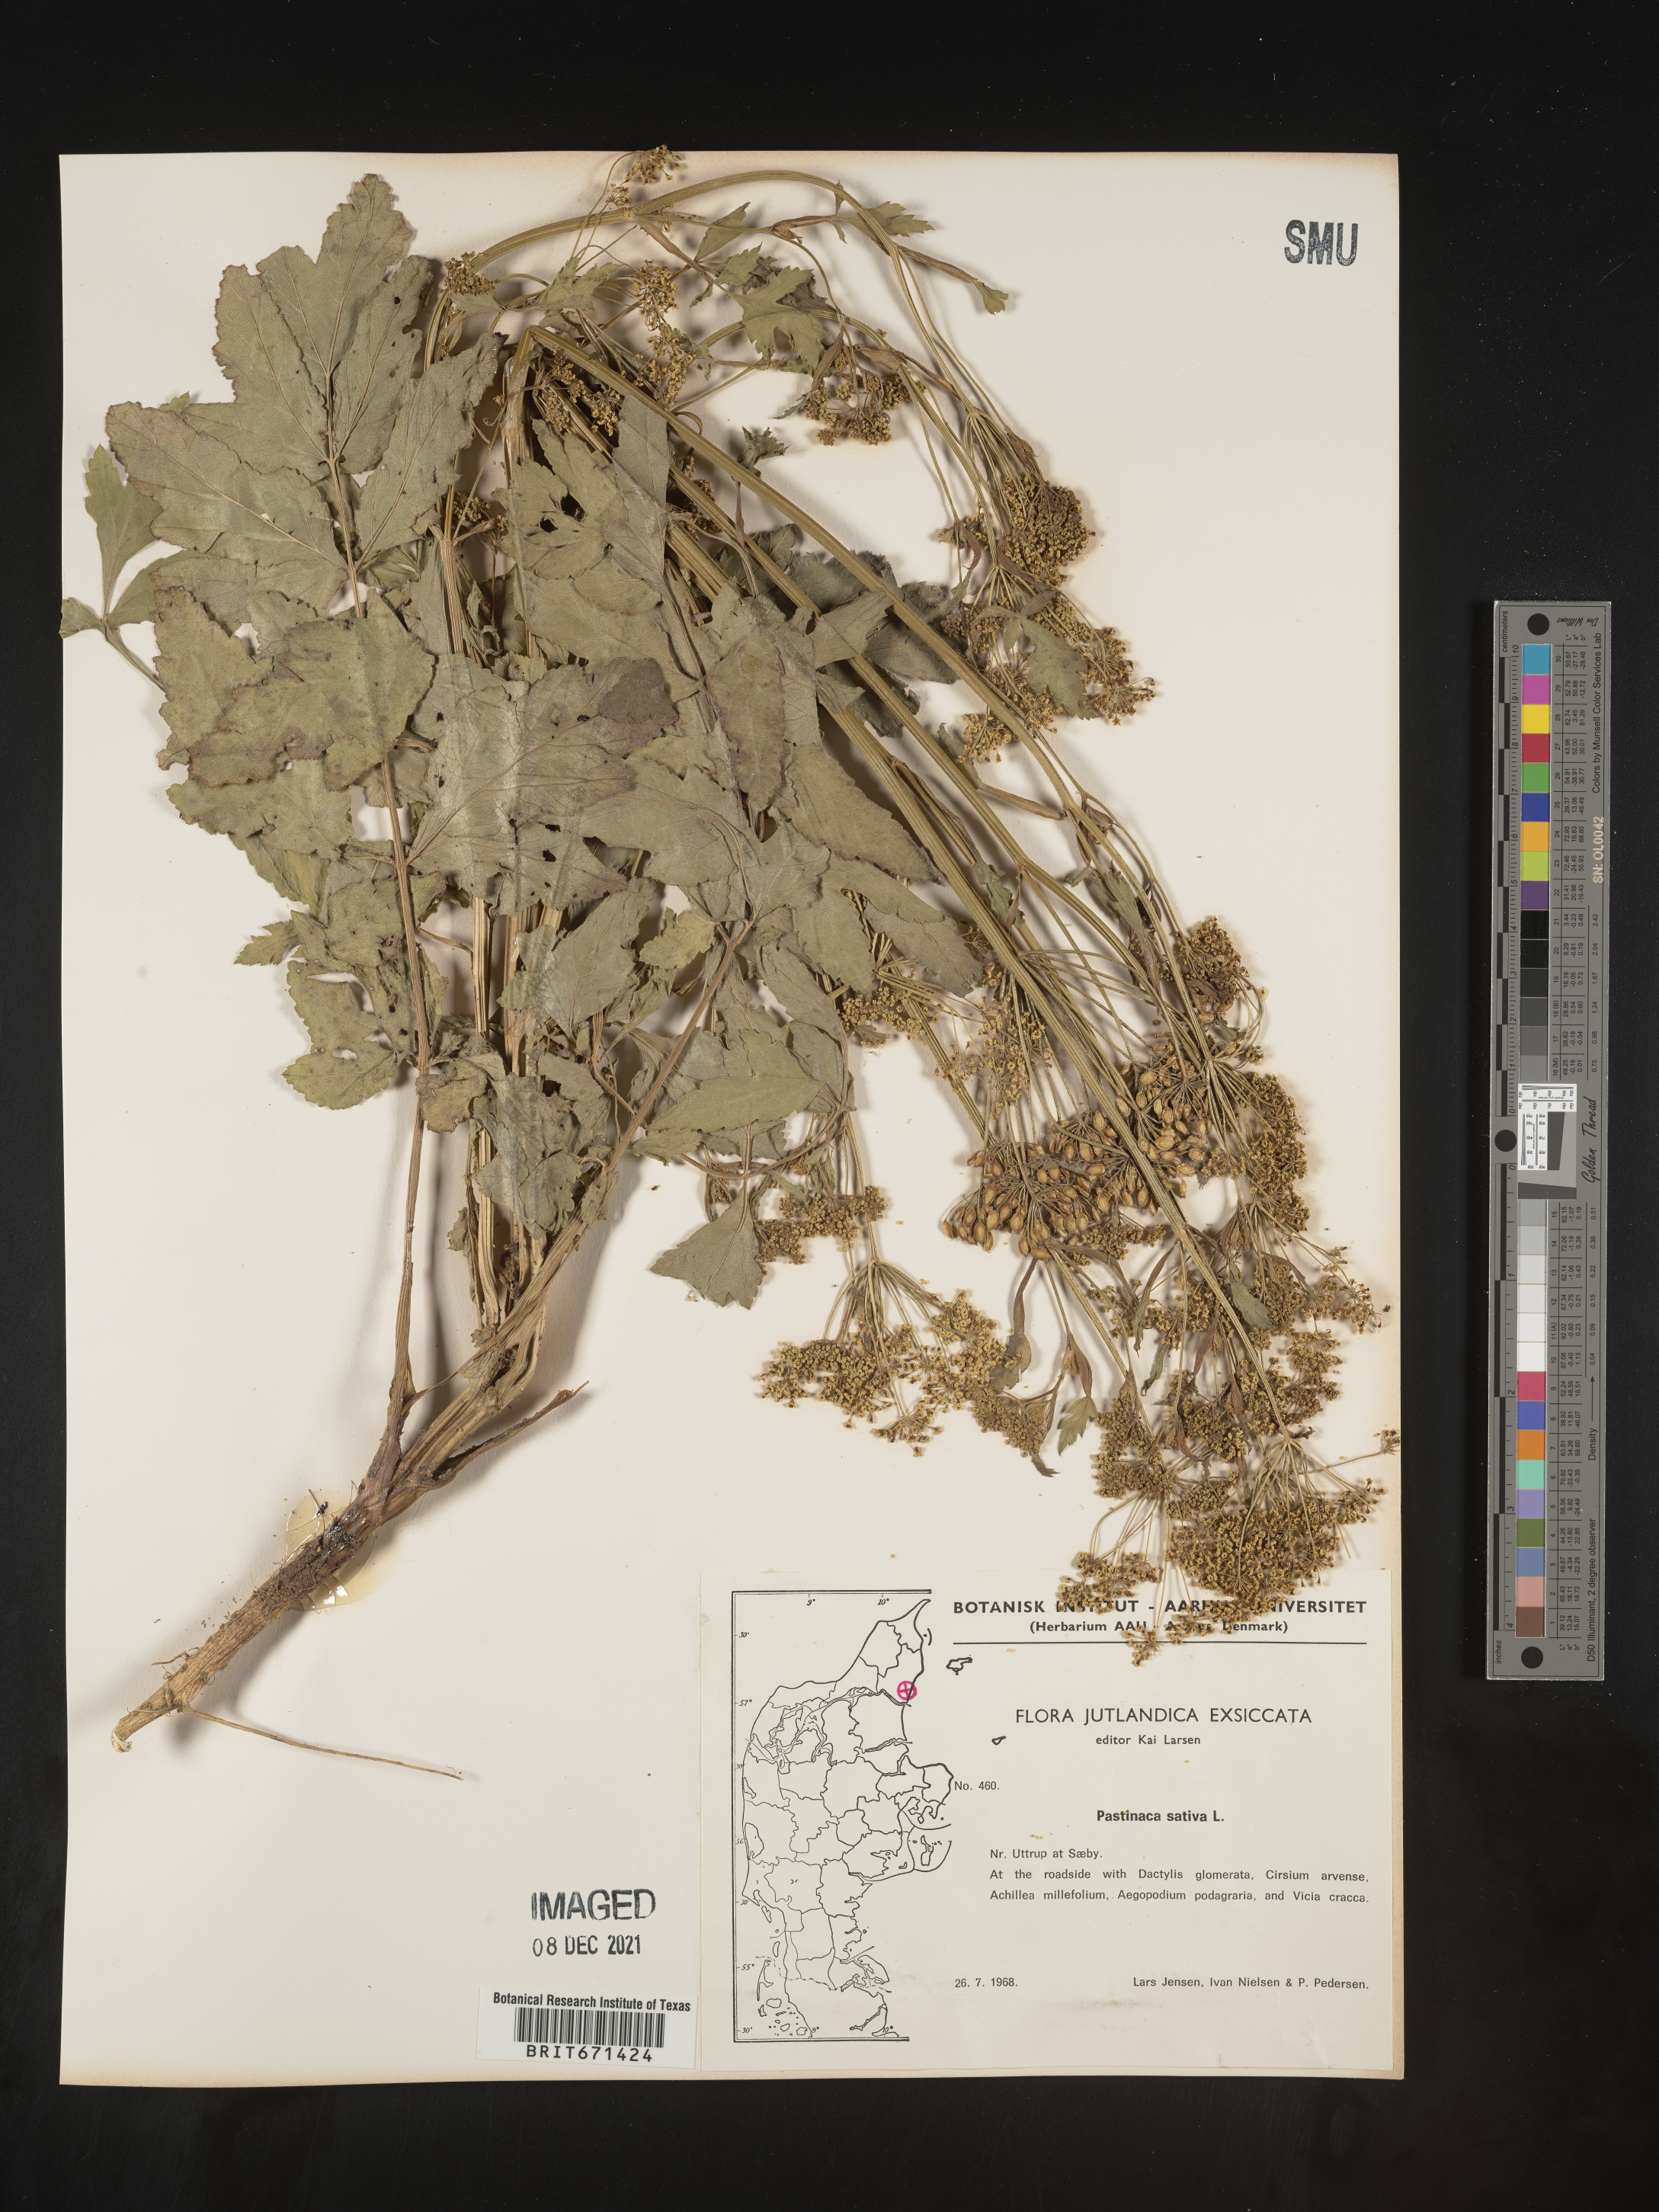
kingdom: Plantae
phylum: Tracheophyta
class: Magnoliopsida
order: Apiales
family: Apiaceae
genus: Pastinaca
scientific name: Pastinaca
